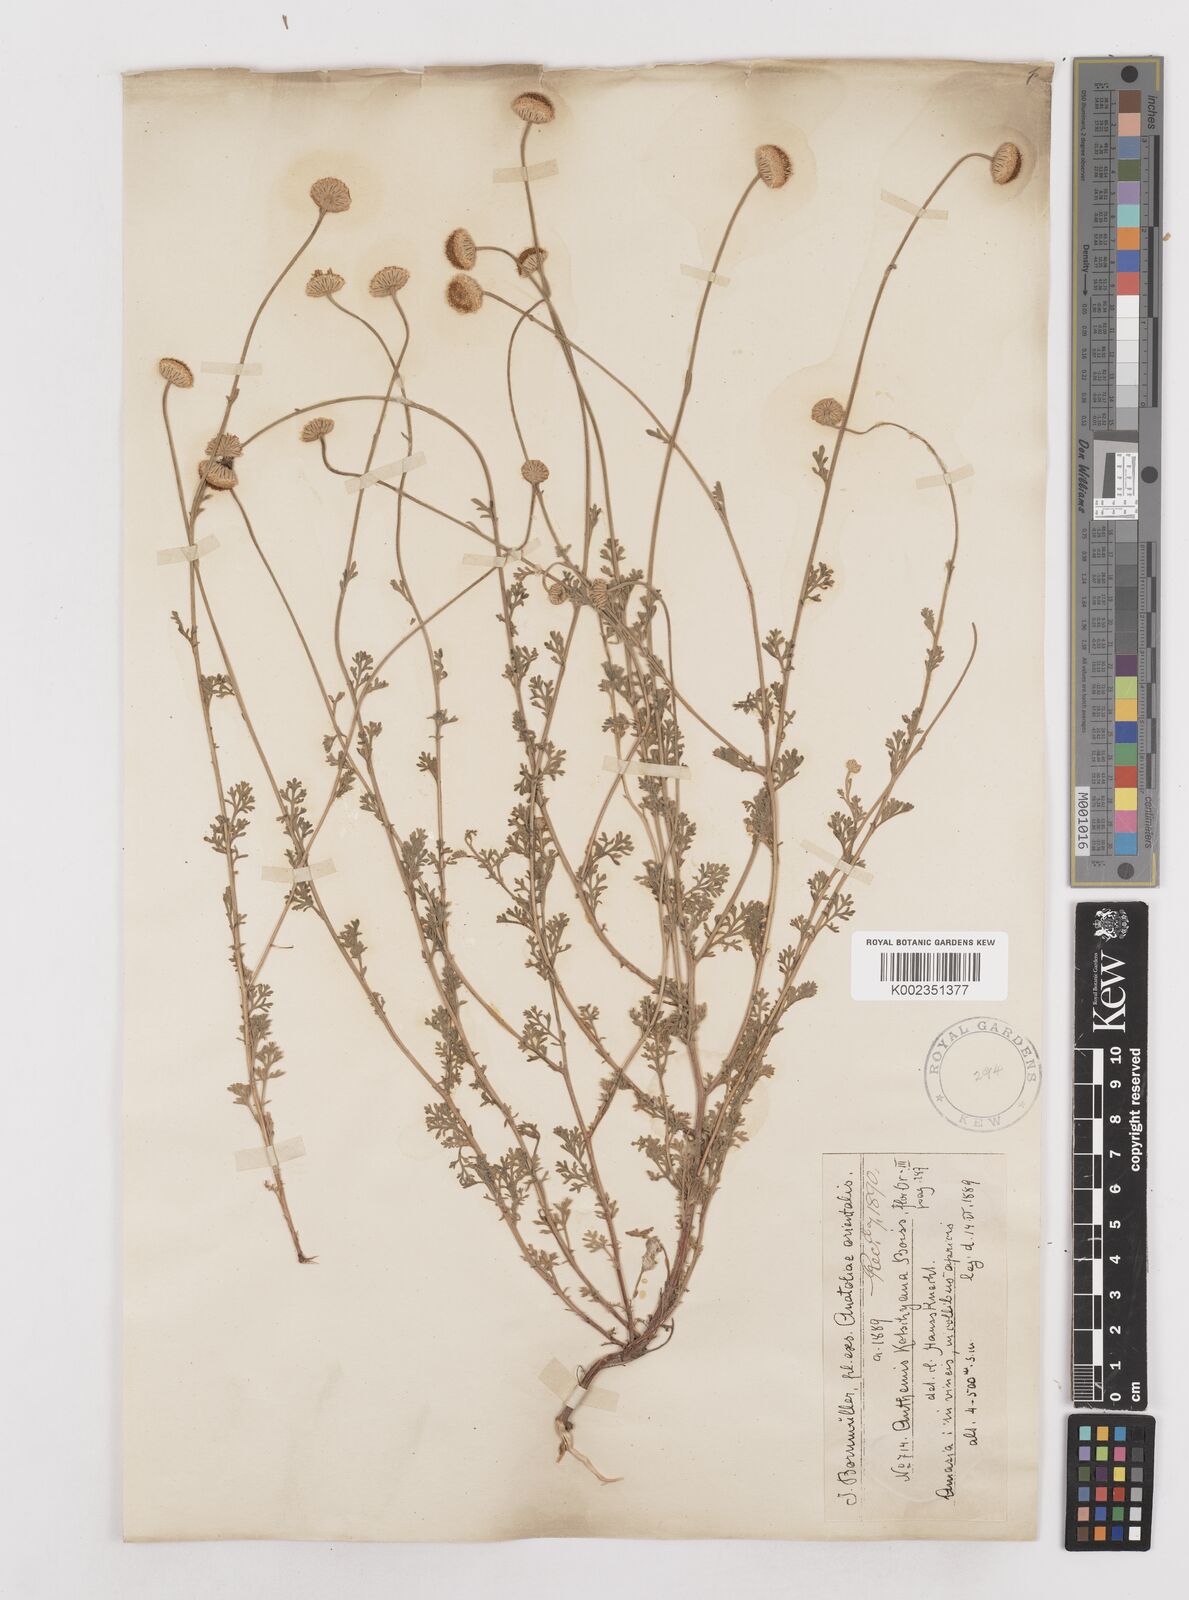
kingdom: Plantae
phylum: Tracheophyta
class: Magnoliopsida
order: Asterales
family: Asteraceae
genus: Anthemis
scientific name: Anthemis kotschyana
